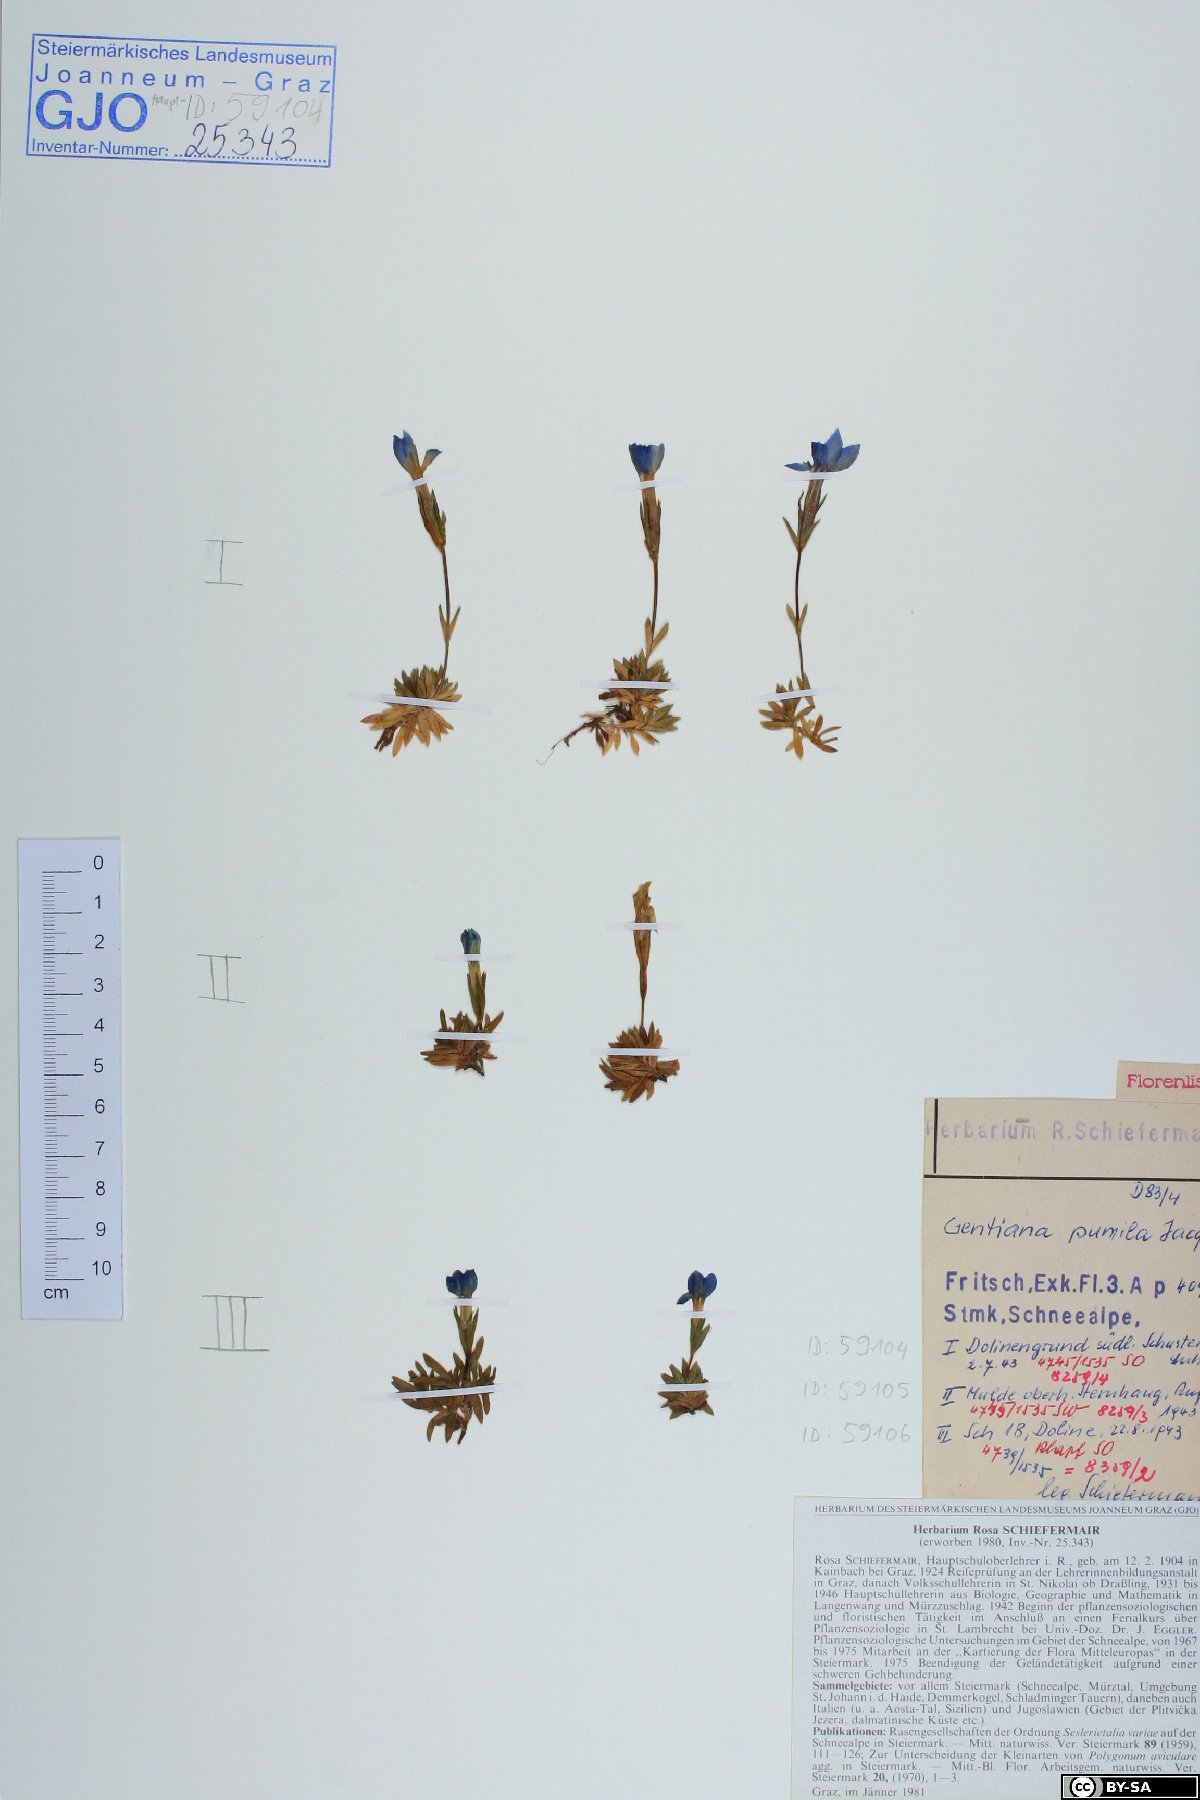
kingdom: Plantae
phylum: Tracheophyta
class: Magnoliopsida
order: Gentianales
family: Gentianaceae
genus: Gentiana
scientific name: Gentiana pumila
